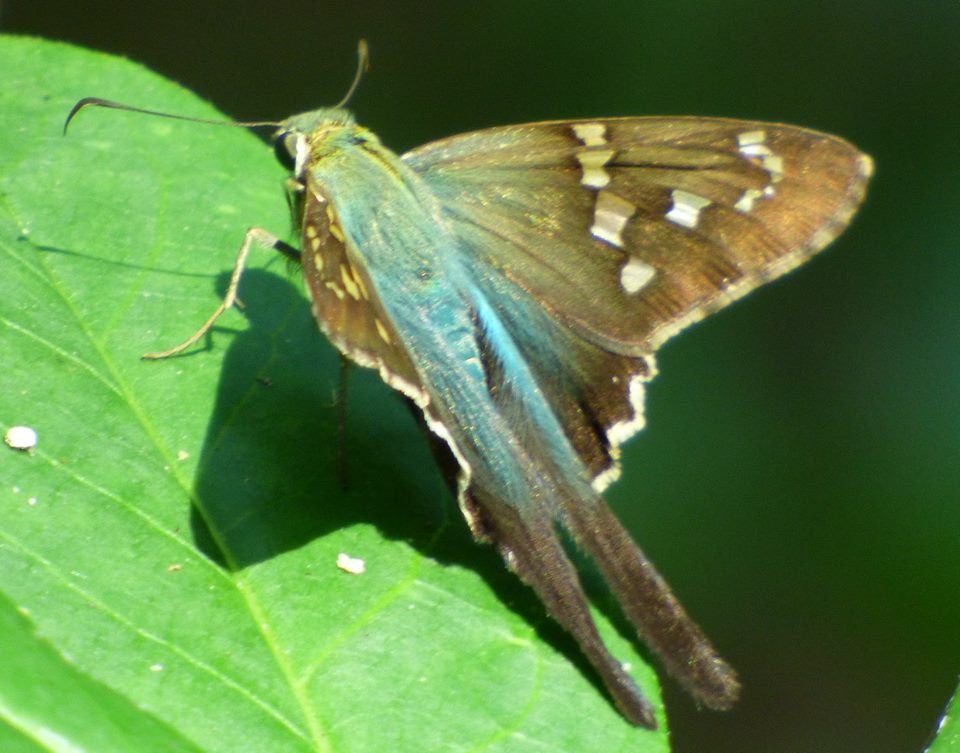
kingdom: Animalia
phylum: Arthropoda
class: Insecta
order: Lepidoptera
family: Hesperiidae
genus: Urbanus
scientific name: Urbanus proteus
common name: Long-tailed Skipper
